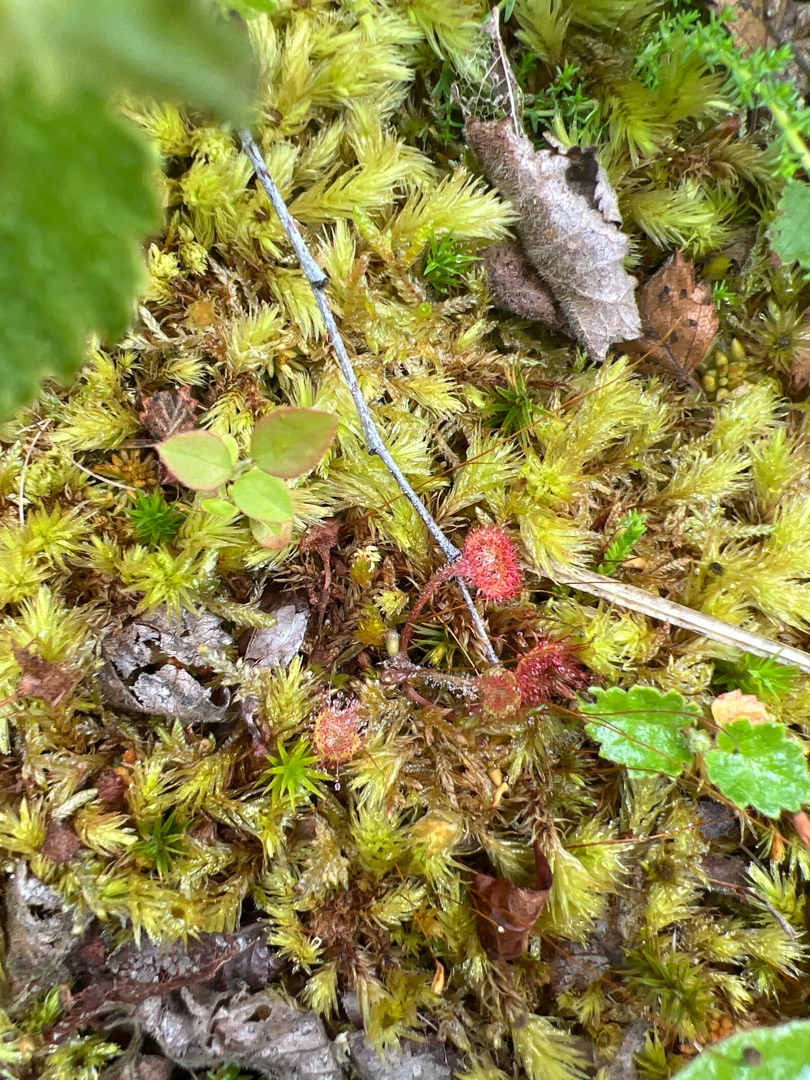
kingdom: Plantae
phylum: Tracheophyta
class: Magnoliopsida
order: Caryophyllales
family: Droseraceae
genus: Drosera
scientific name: Drosera rotundifolia
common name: Rundbladet soldug
